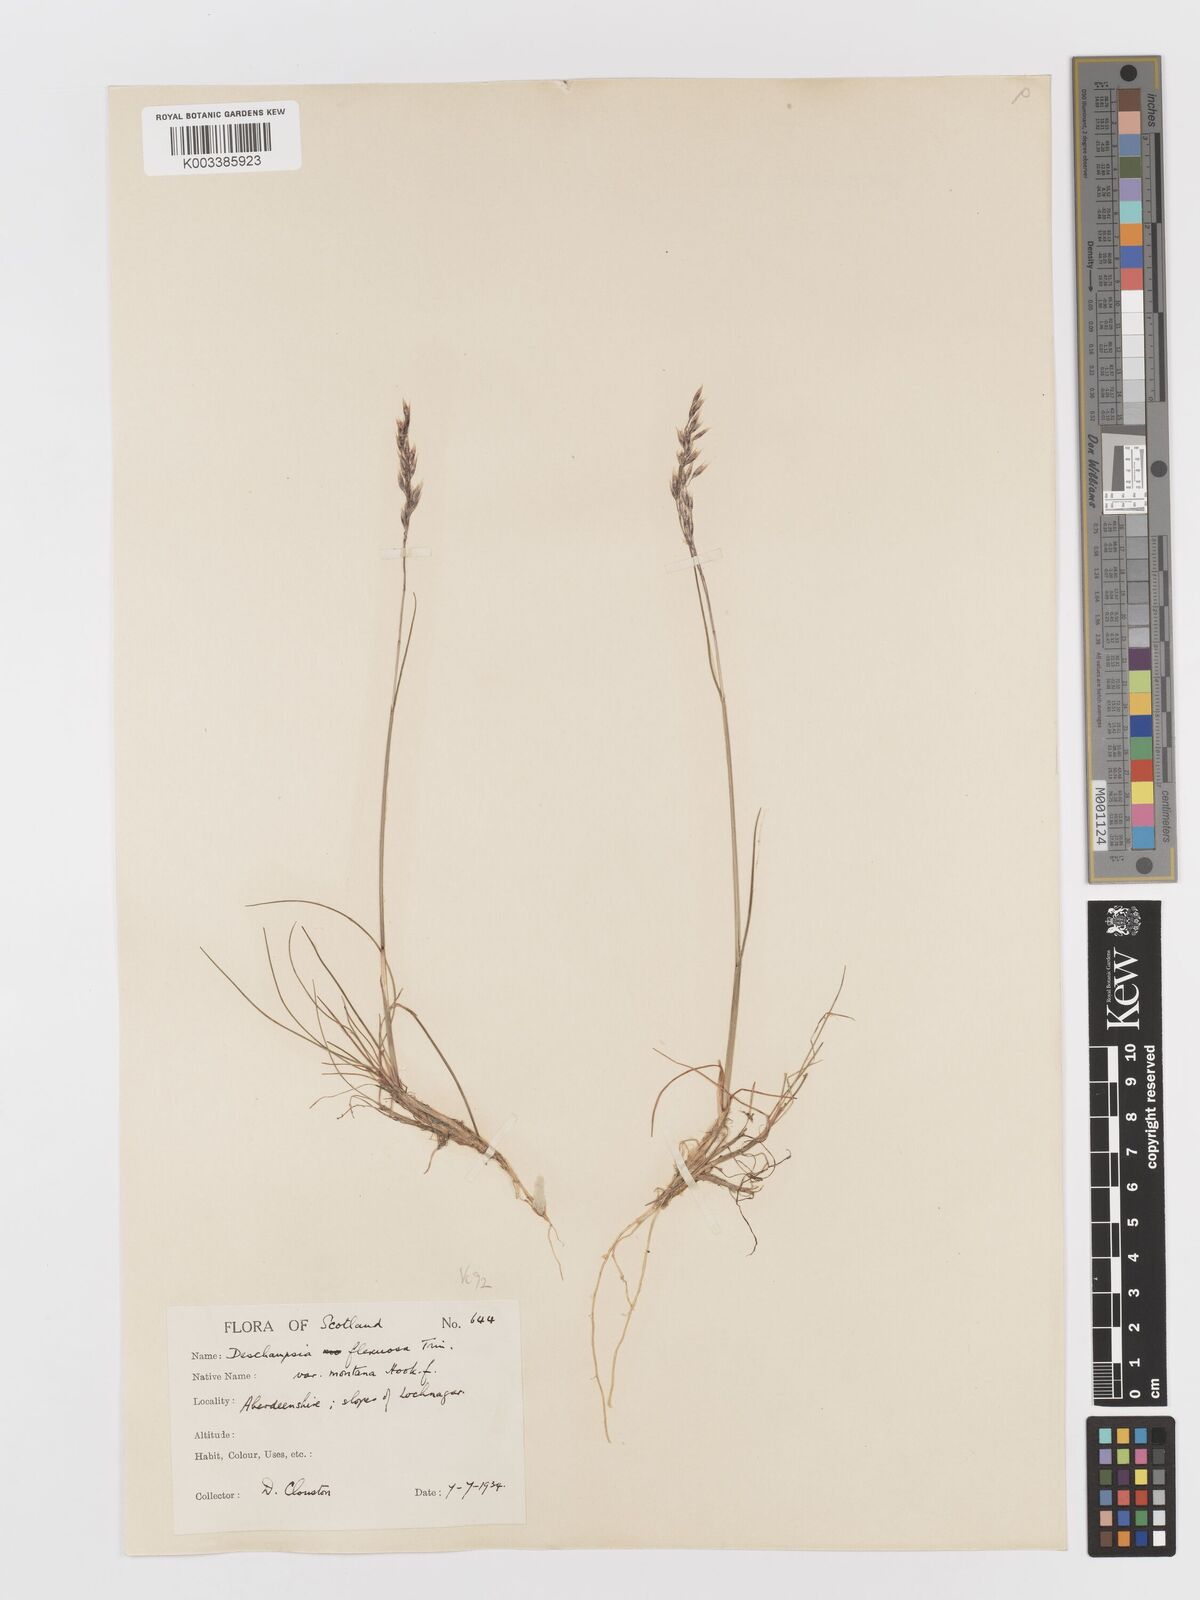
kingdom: Plantae
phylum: Tracheophyta
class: Liliopsida
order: Poales
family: Poaceae
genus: Avenella
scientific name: Avenella flexuosa
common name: Wavy hairgrass
